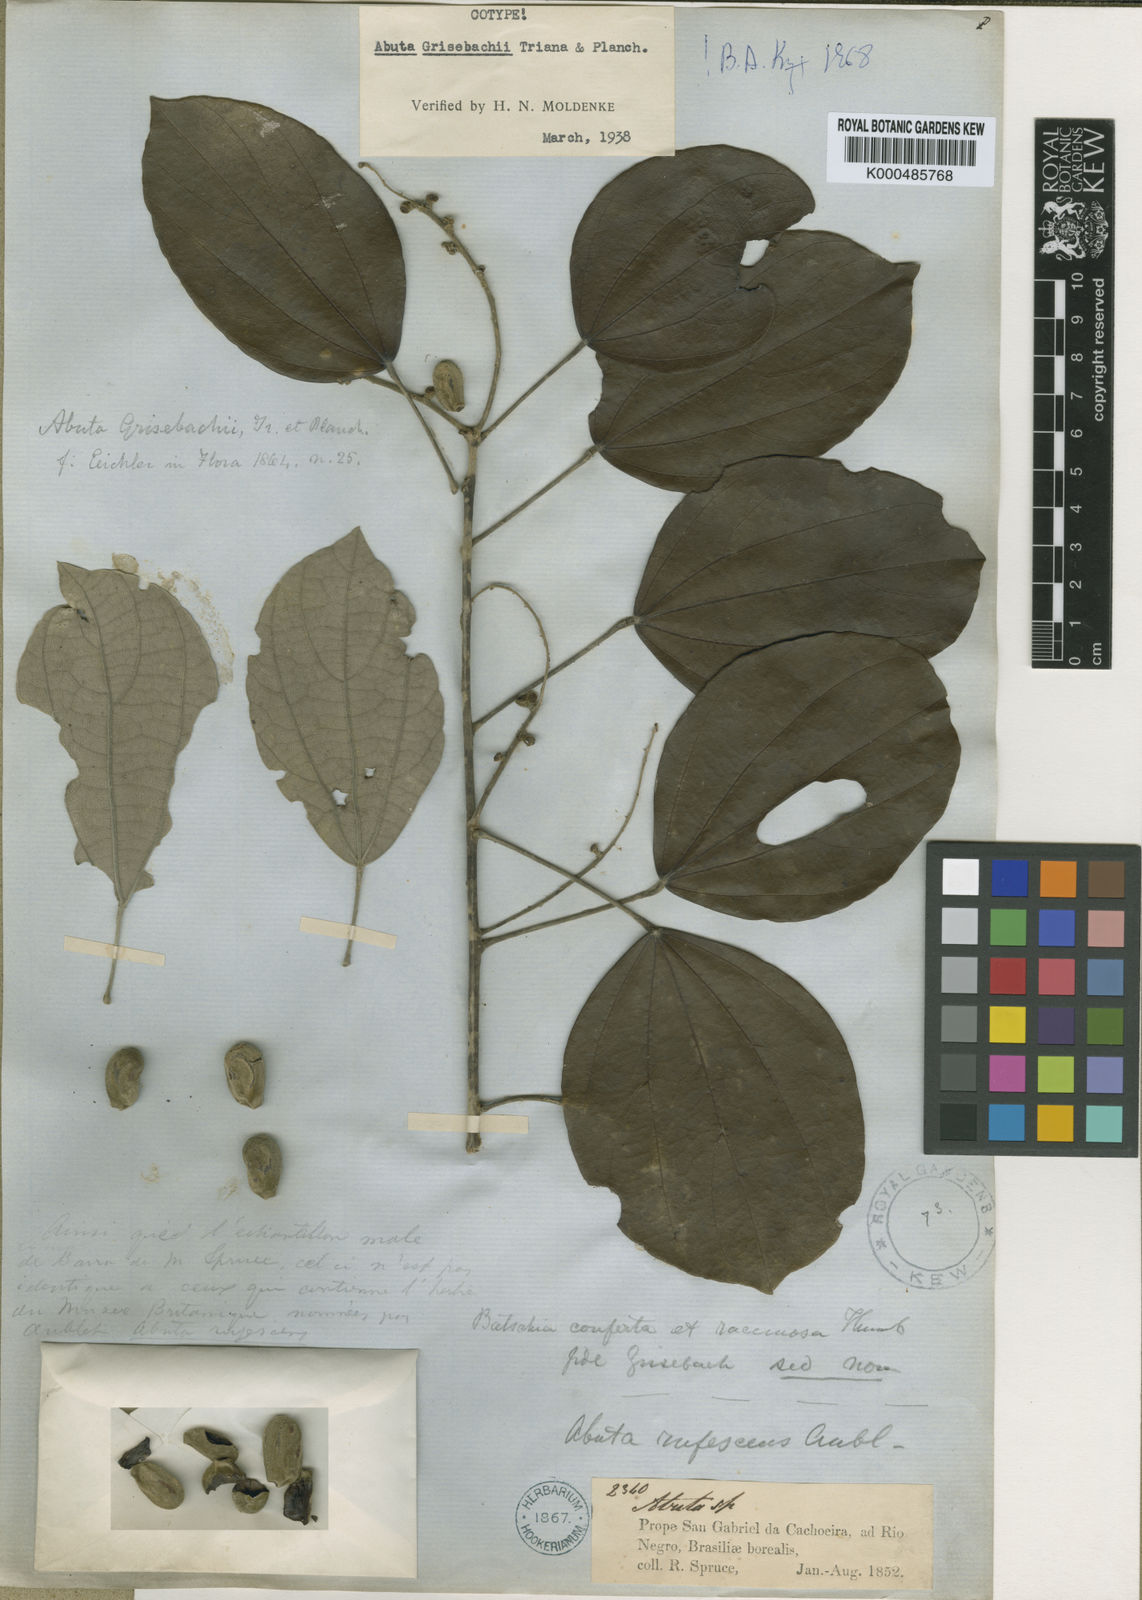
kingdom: Plantae
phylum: Tracheophyta
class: Magnoliopsida
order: Ranunculales
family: Menispermaceae
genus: Abuta
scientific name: Abuta grisebachii
